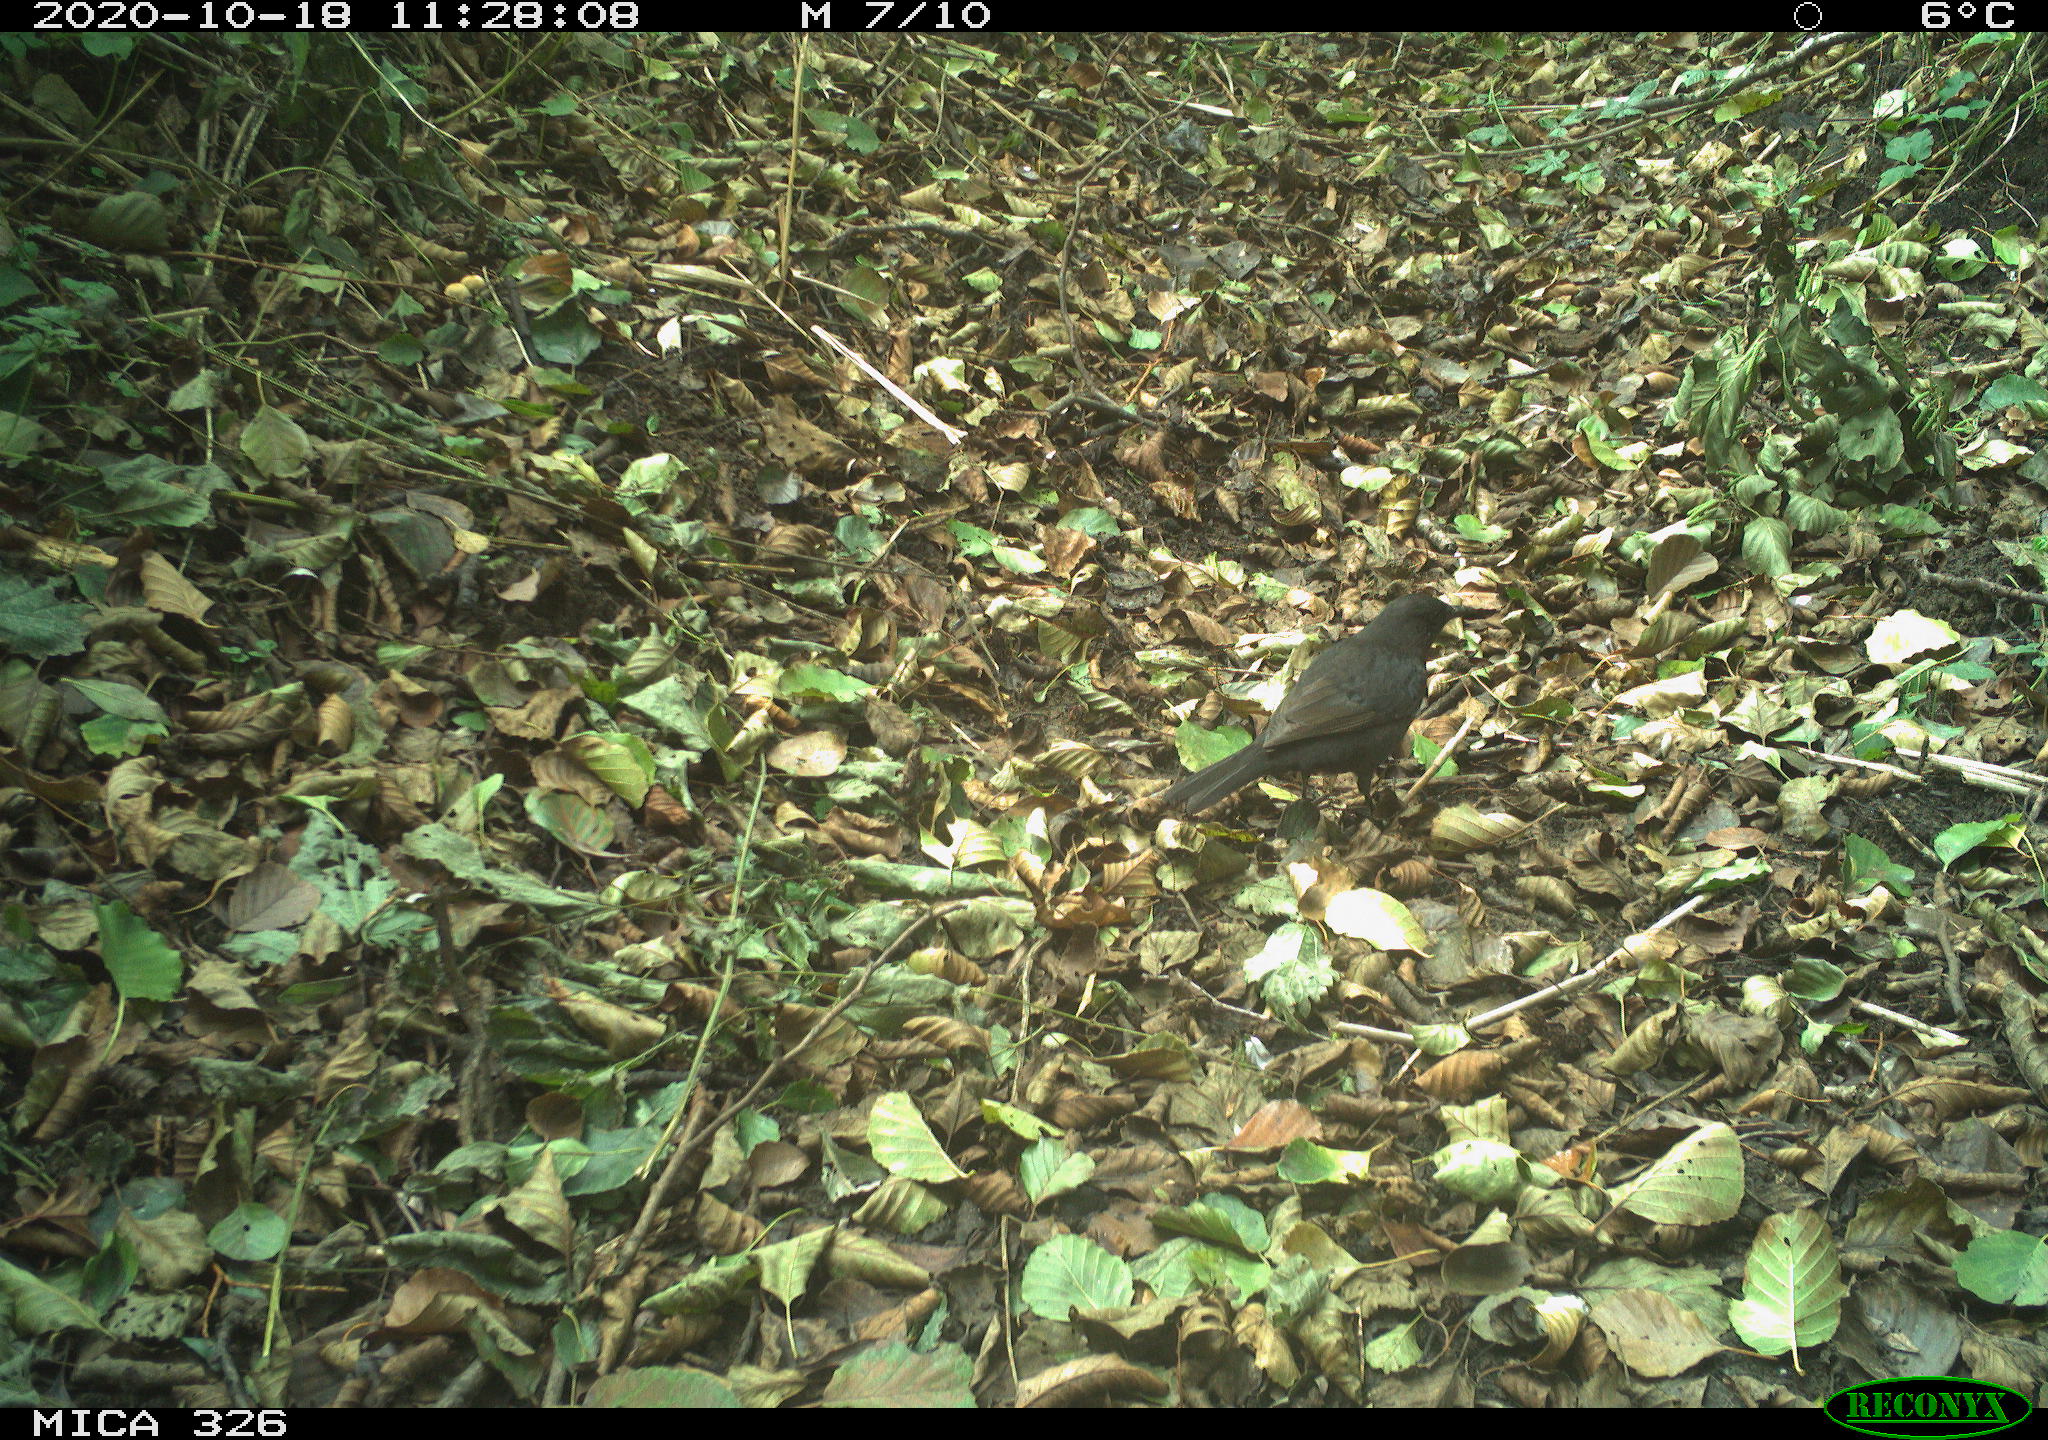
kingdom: Animalia
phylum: Chordata
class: Aves
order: Passeriformes
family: Turdidae
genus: Turdus
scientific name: Turdus merula
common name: Common blackbird
